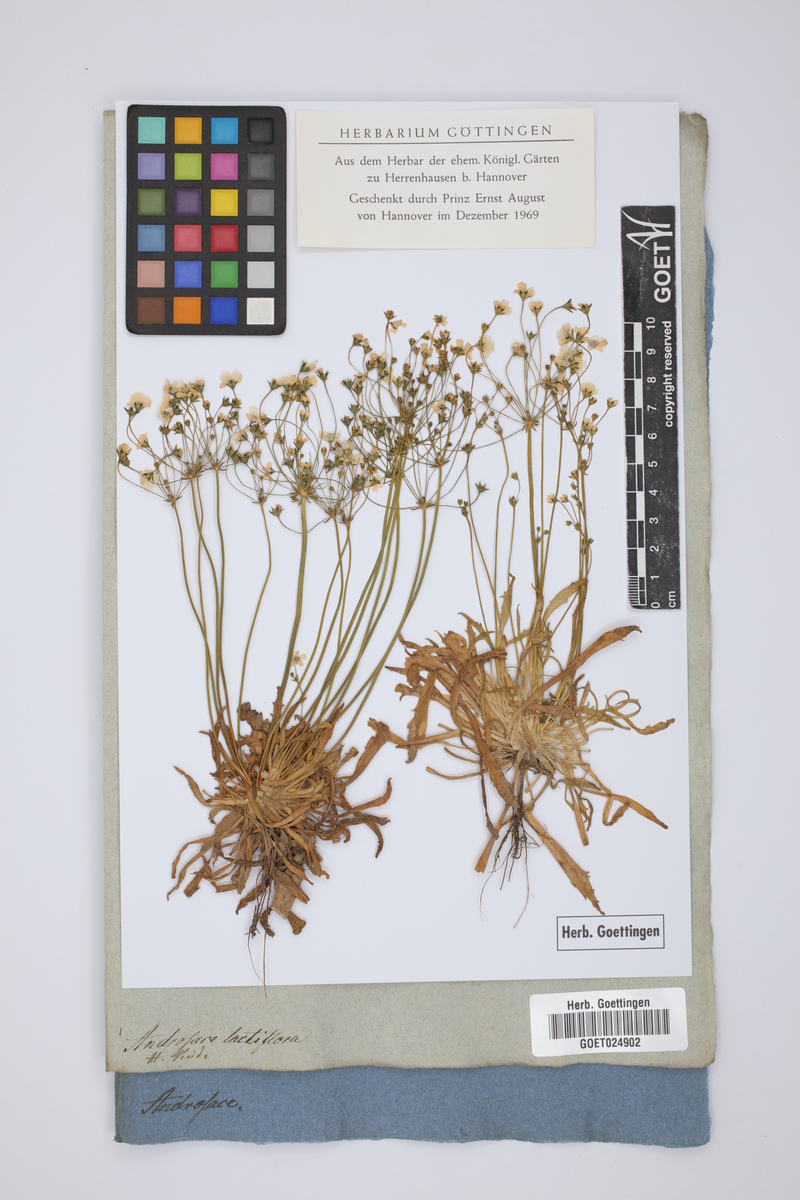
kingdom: Plantae
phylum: Tracheophyta
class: Magnoliopsida
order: Ericales
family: Primulaceae
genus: Androsace
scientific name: Androsace septentrionalis
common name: Hairy northern fairy-candelabra
